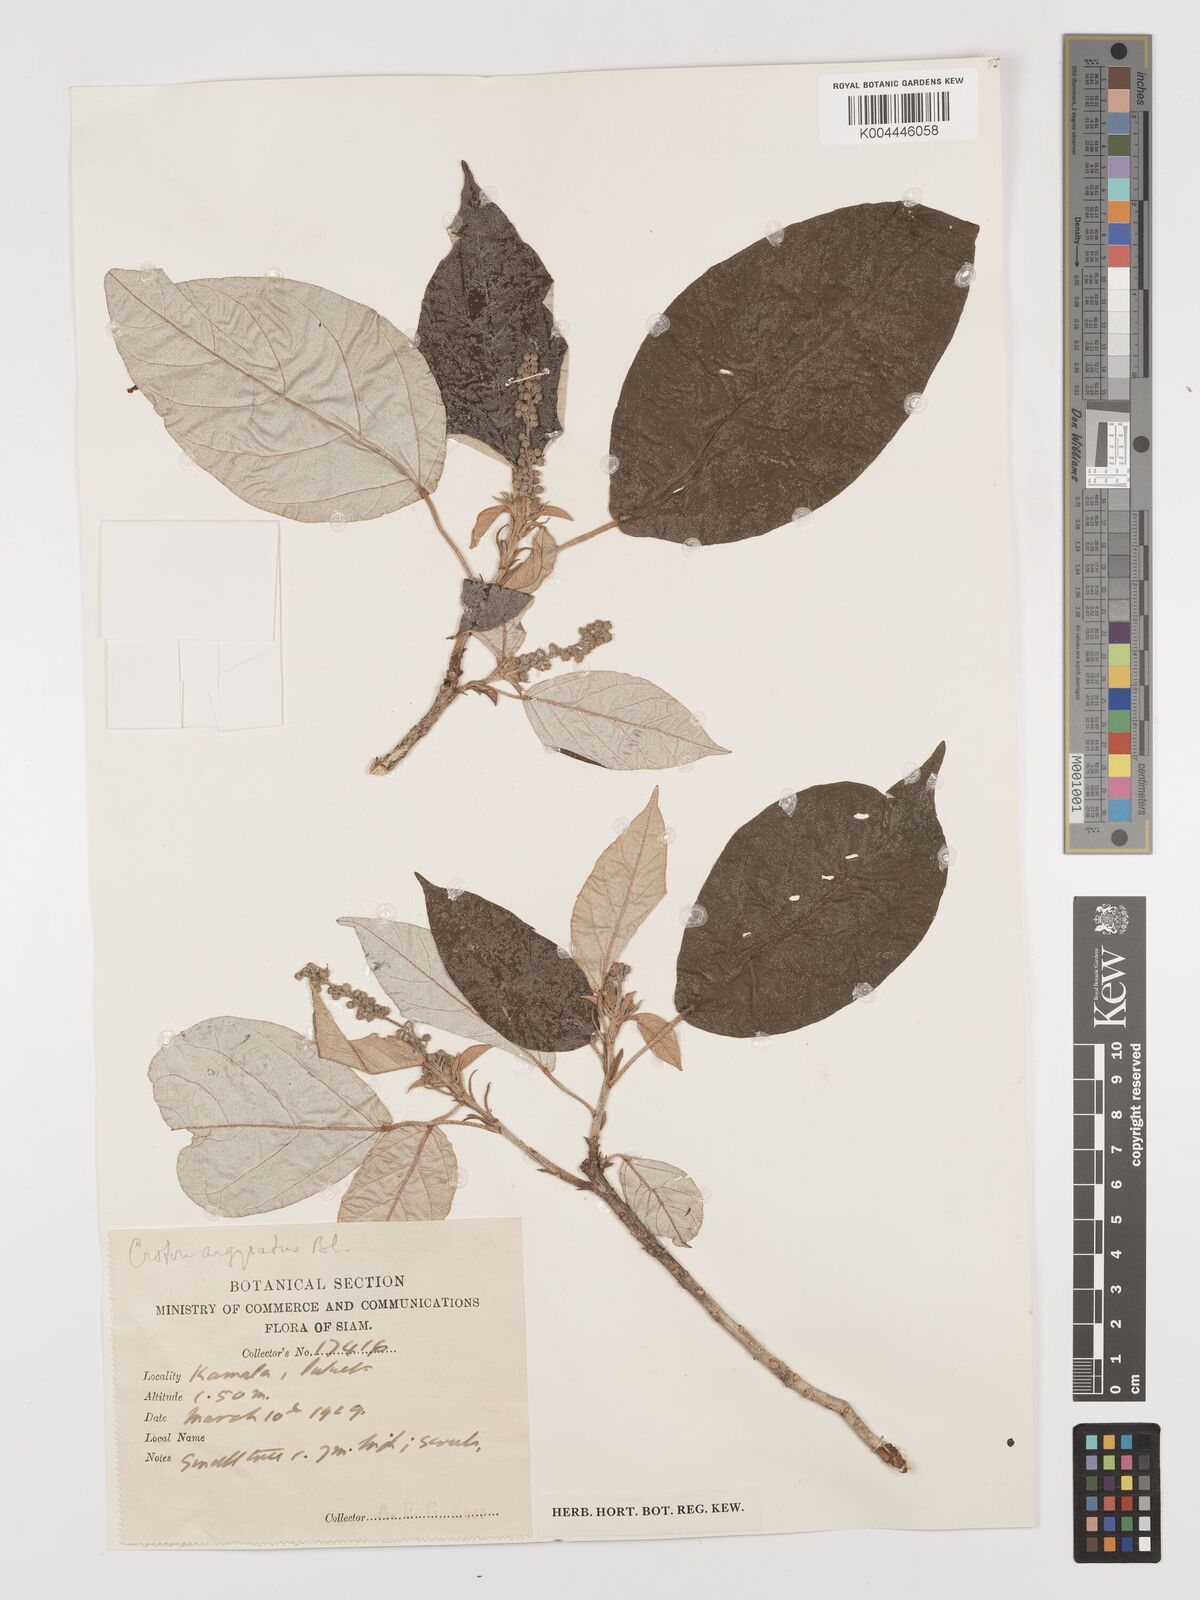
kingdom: Plantae
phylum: Tracheophyta
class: Magnoliopsida
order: Malpighiales
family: Euphorbiaceae
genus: Croton
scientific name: Croton argyratus
